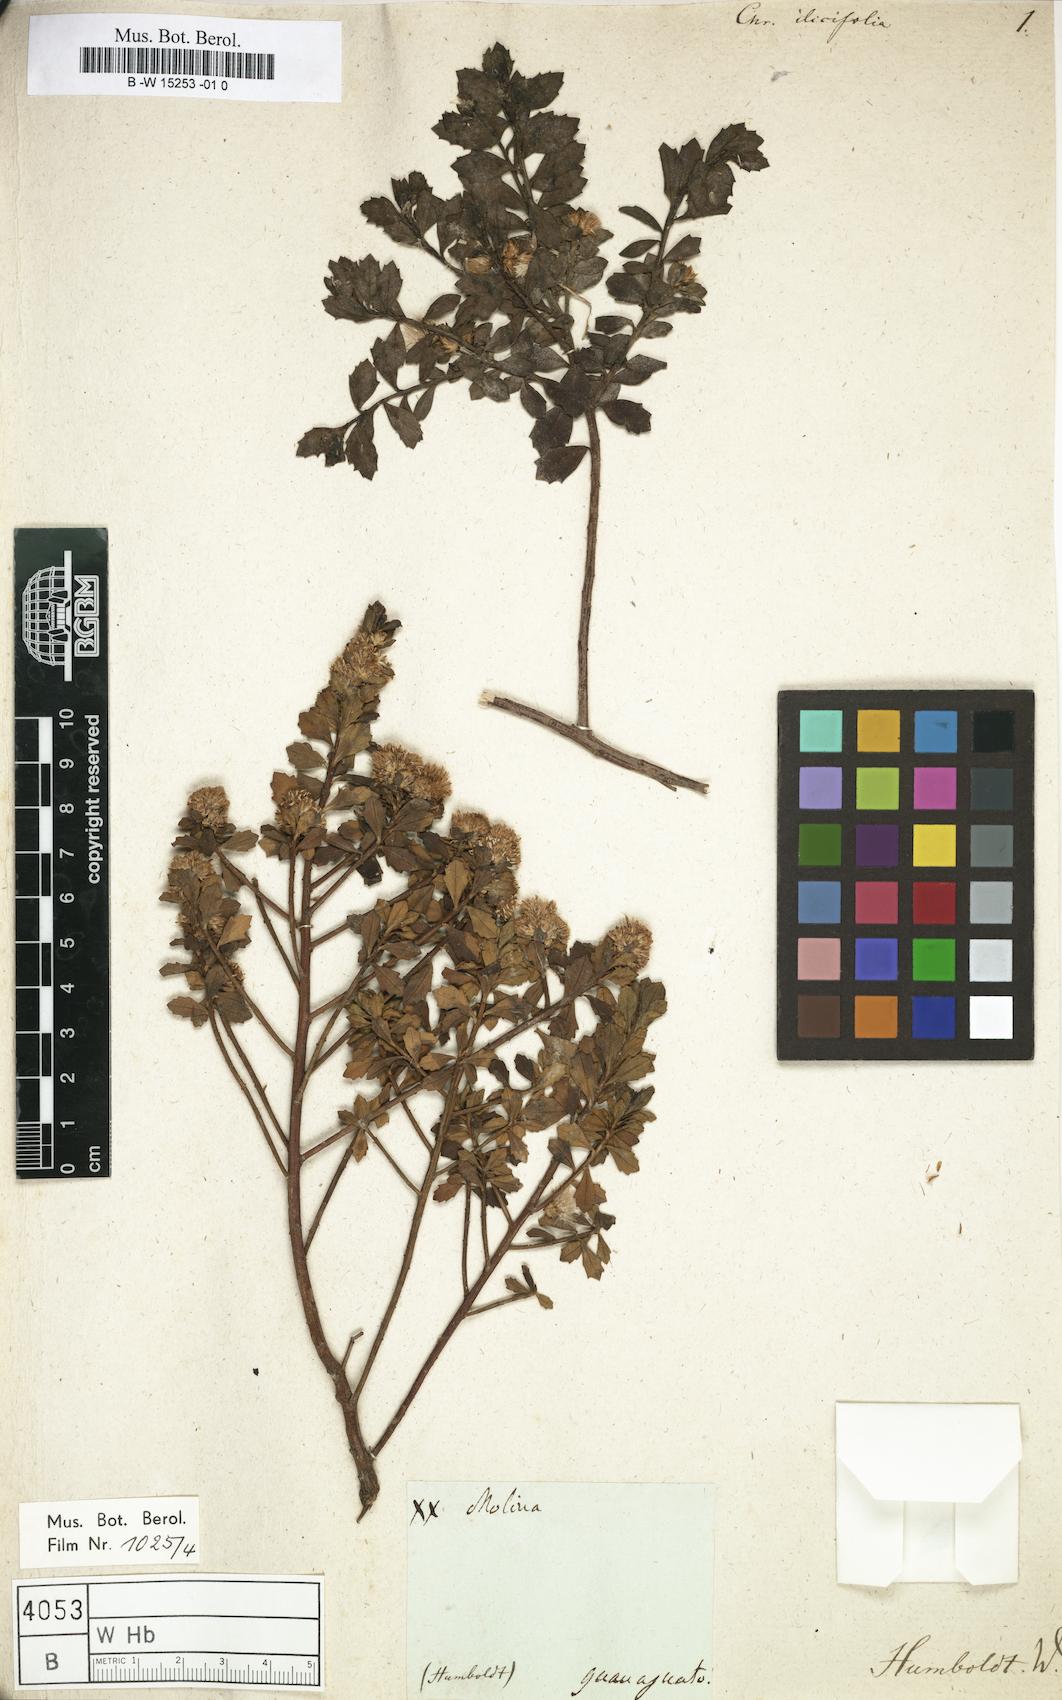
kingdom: Plantae
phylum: Tracheophyta
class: Magnoliopsida
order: Asterales
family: Asteraceae
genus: Chrysocoma
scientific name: Chrysocoma
